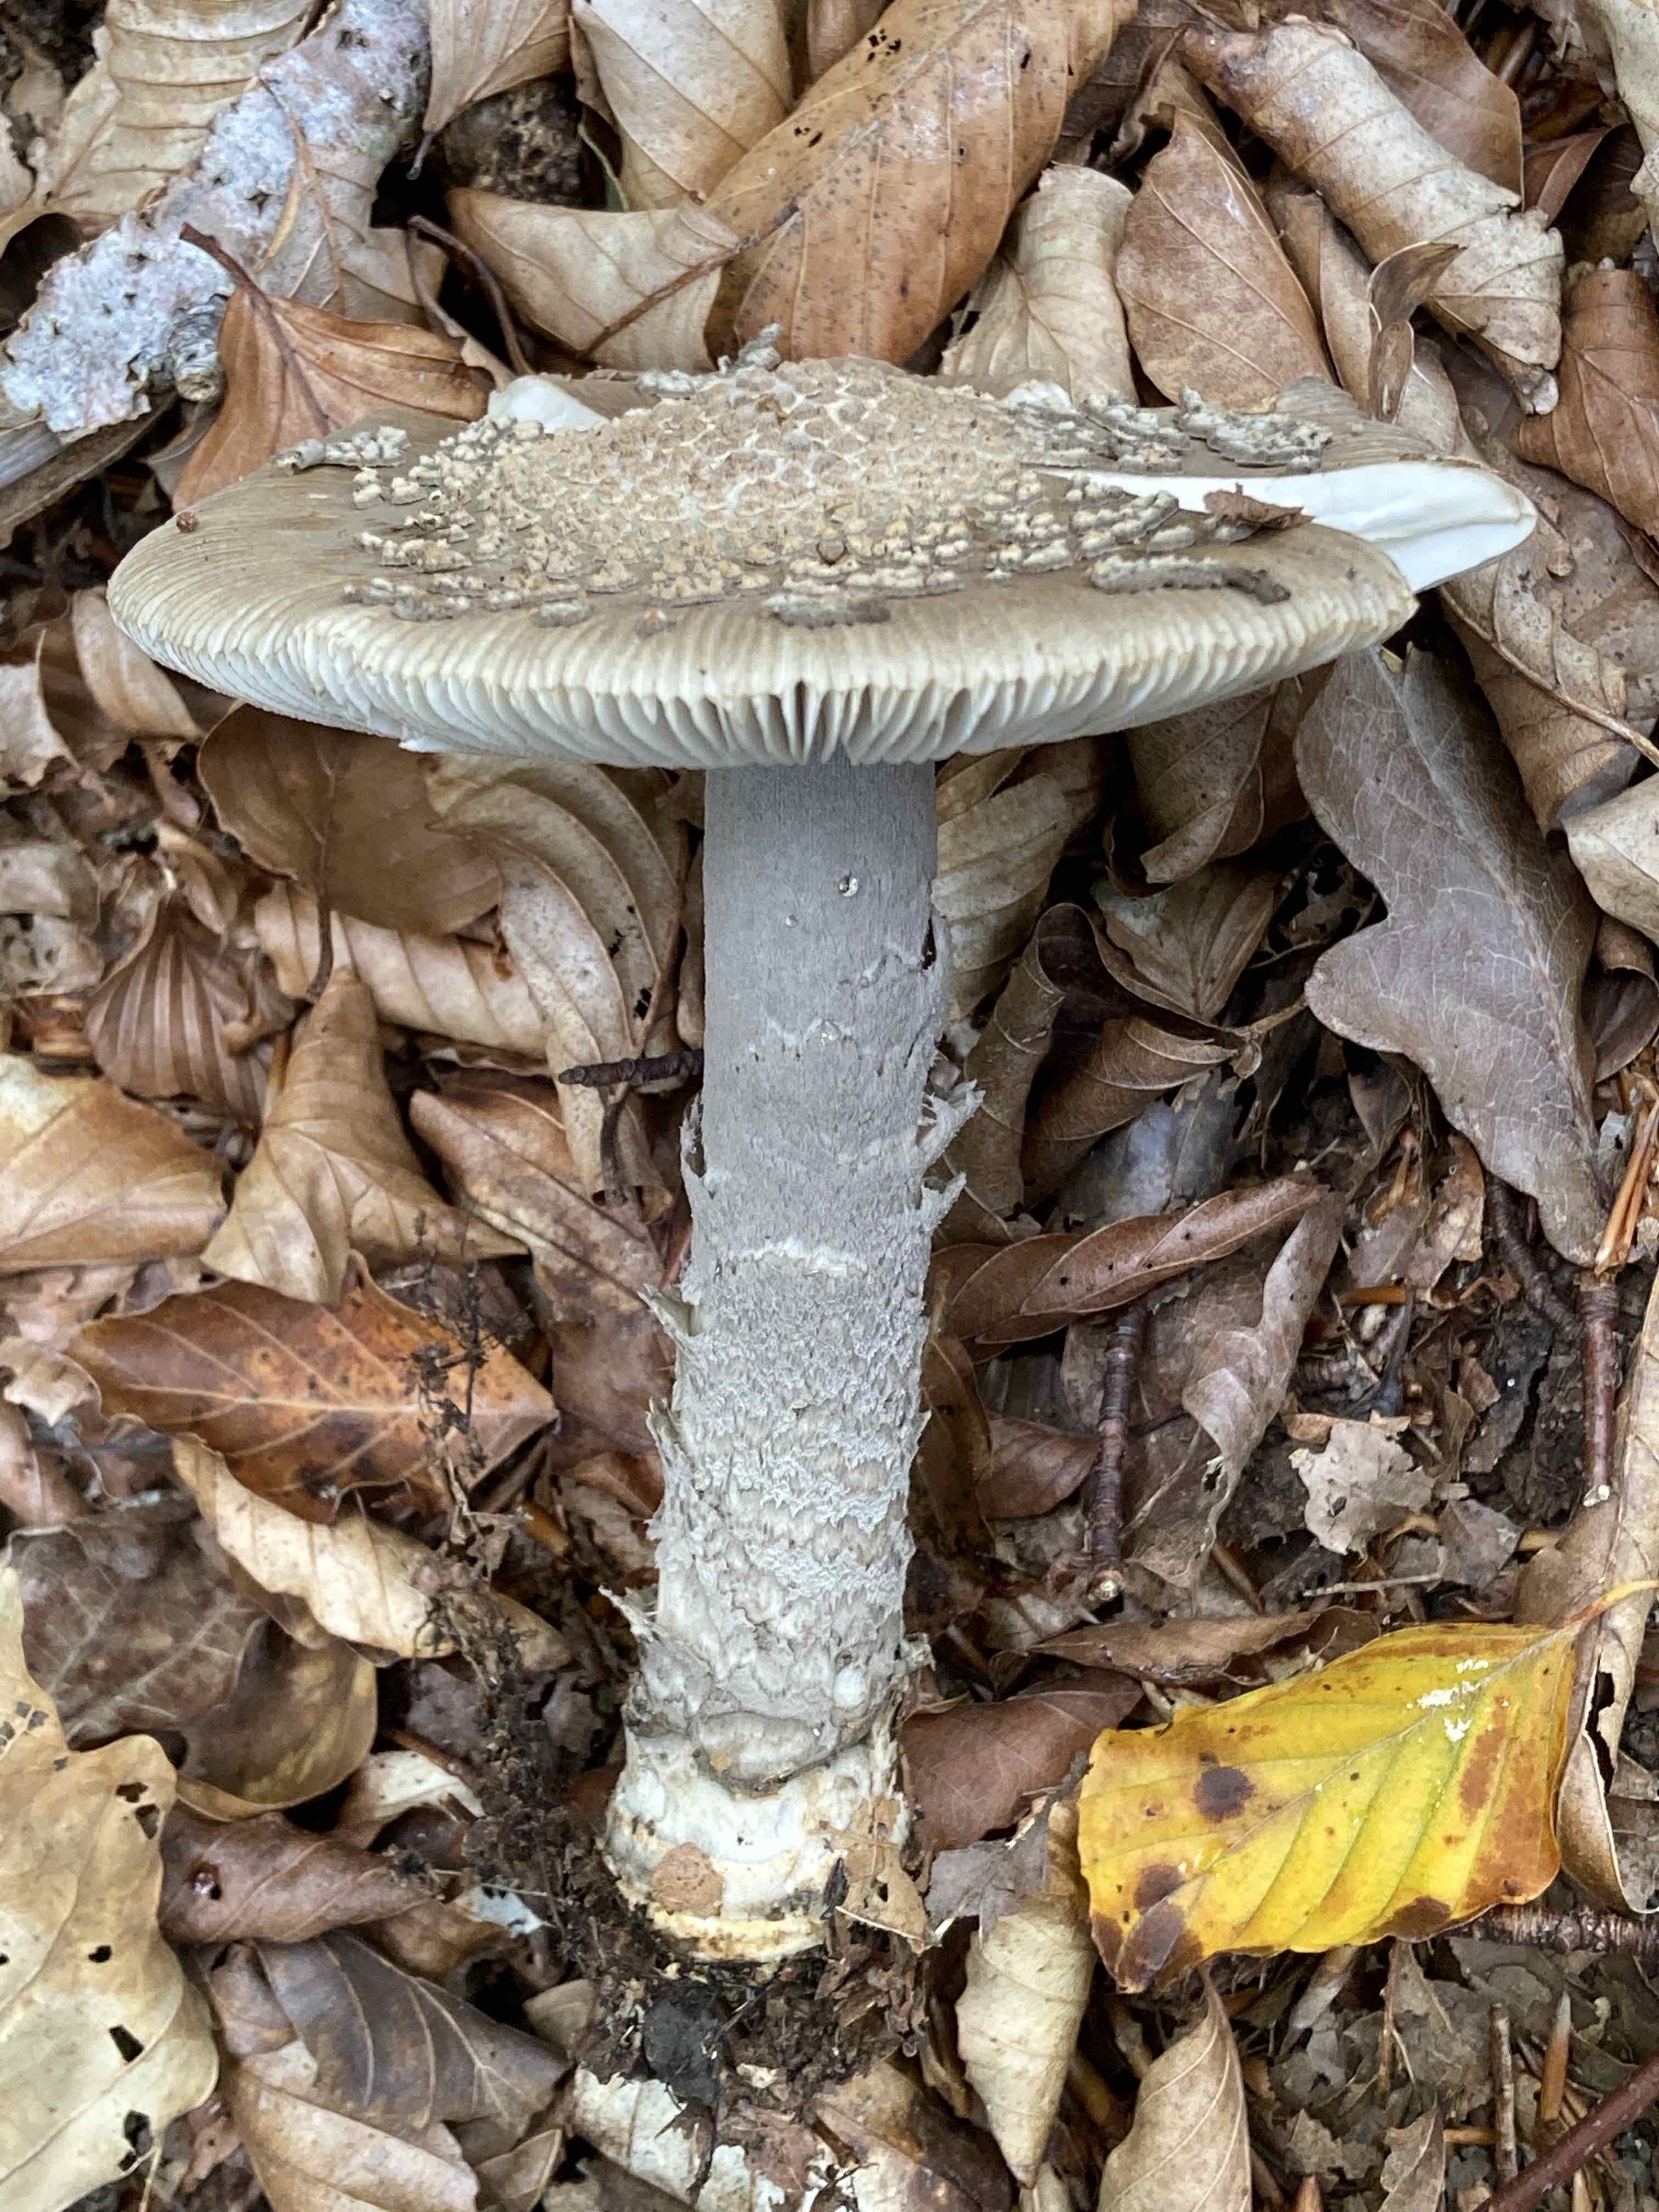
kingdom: Fungi
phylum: Basidiomycota
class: Agaricomycetes
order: Agaricales
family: Amanitaceae
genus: Amanita
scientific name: Amanita ceciliae
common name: stor kam-fluesvamp
